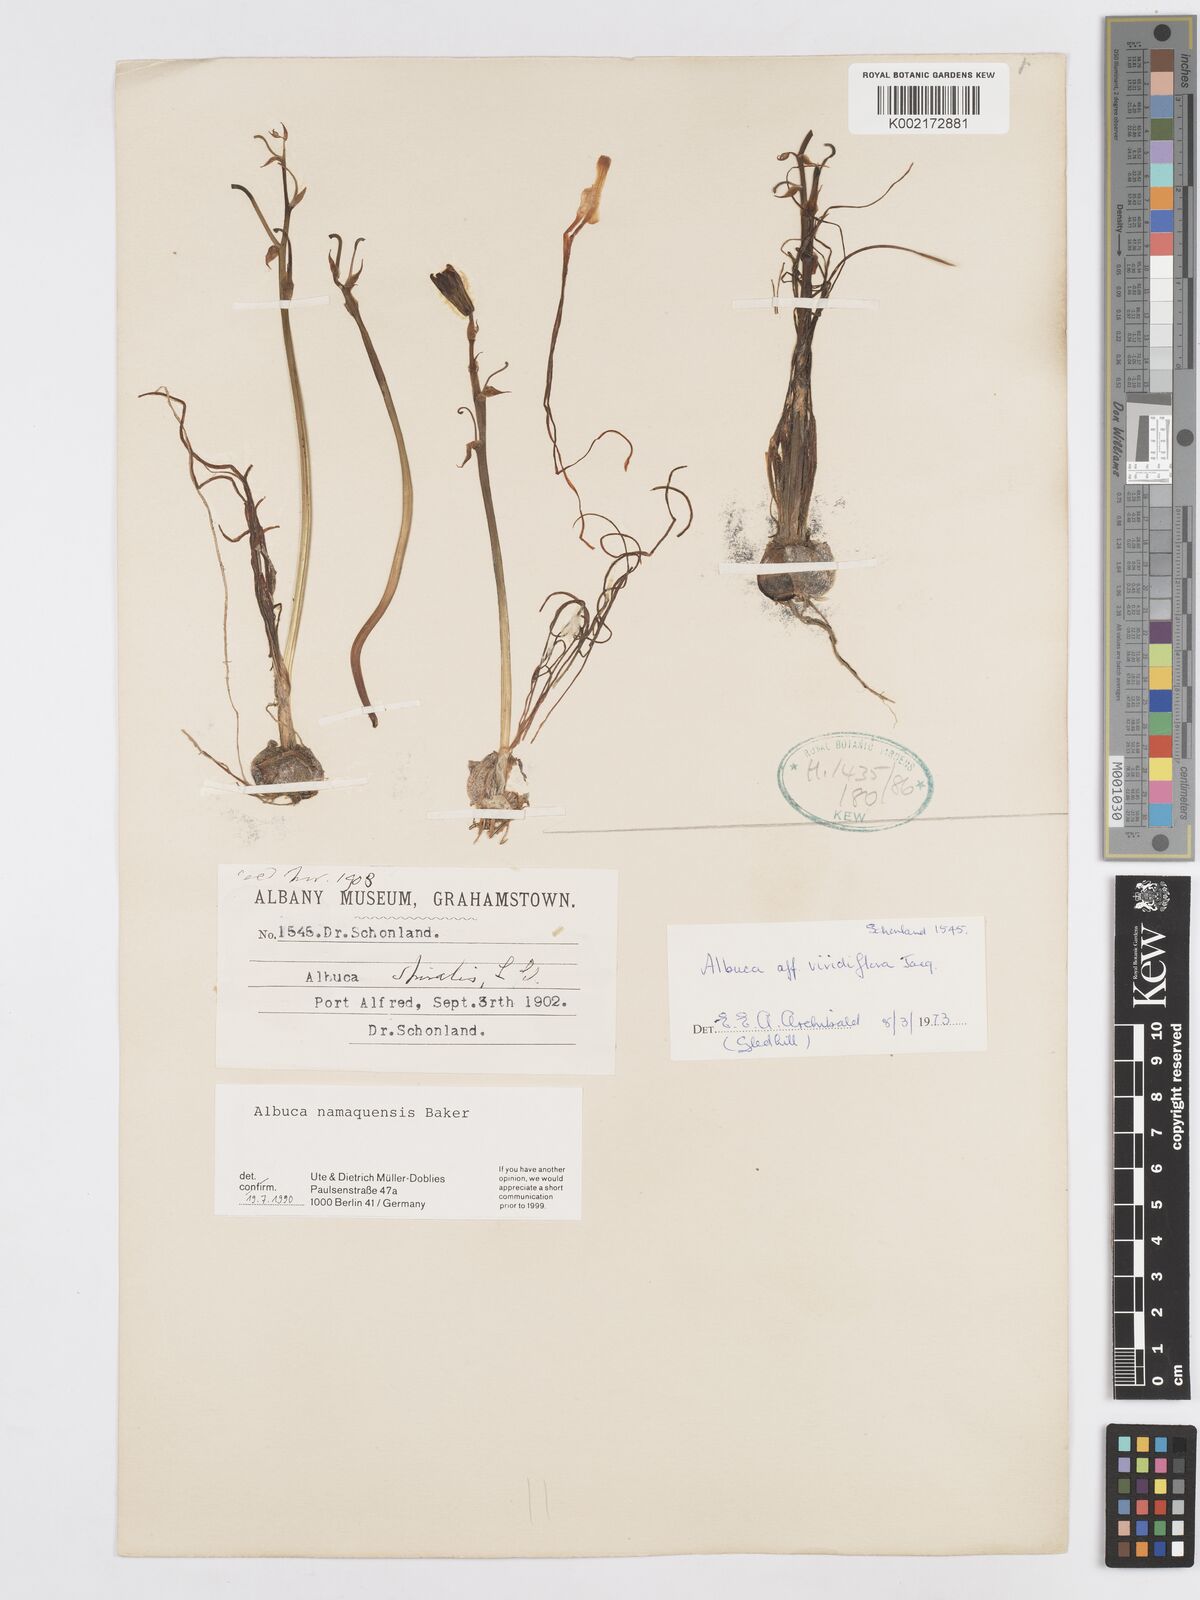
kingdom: Plantae
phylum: Tracheophyta
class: Liliopsida
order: Asparagales
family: Asparagaceae
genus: Albuca
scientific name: Albuca namaquensis
